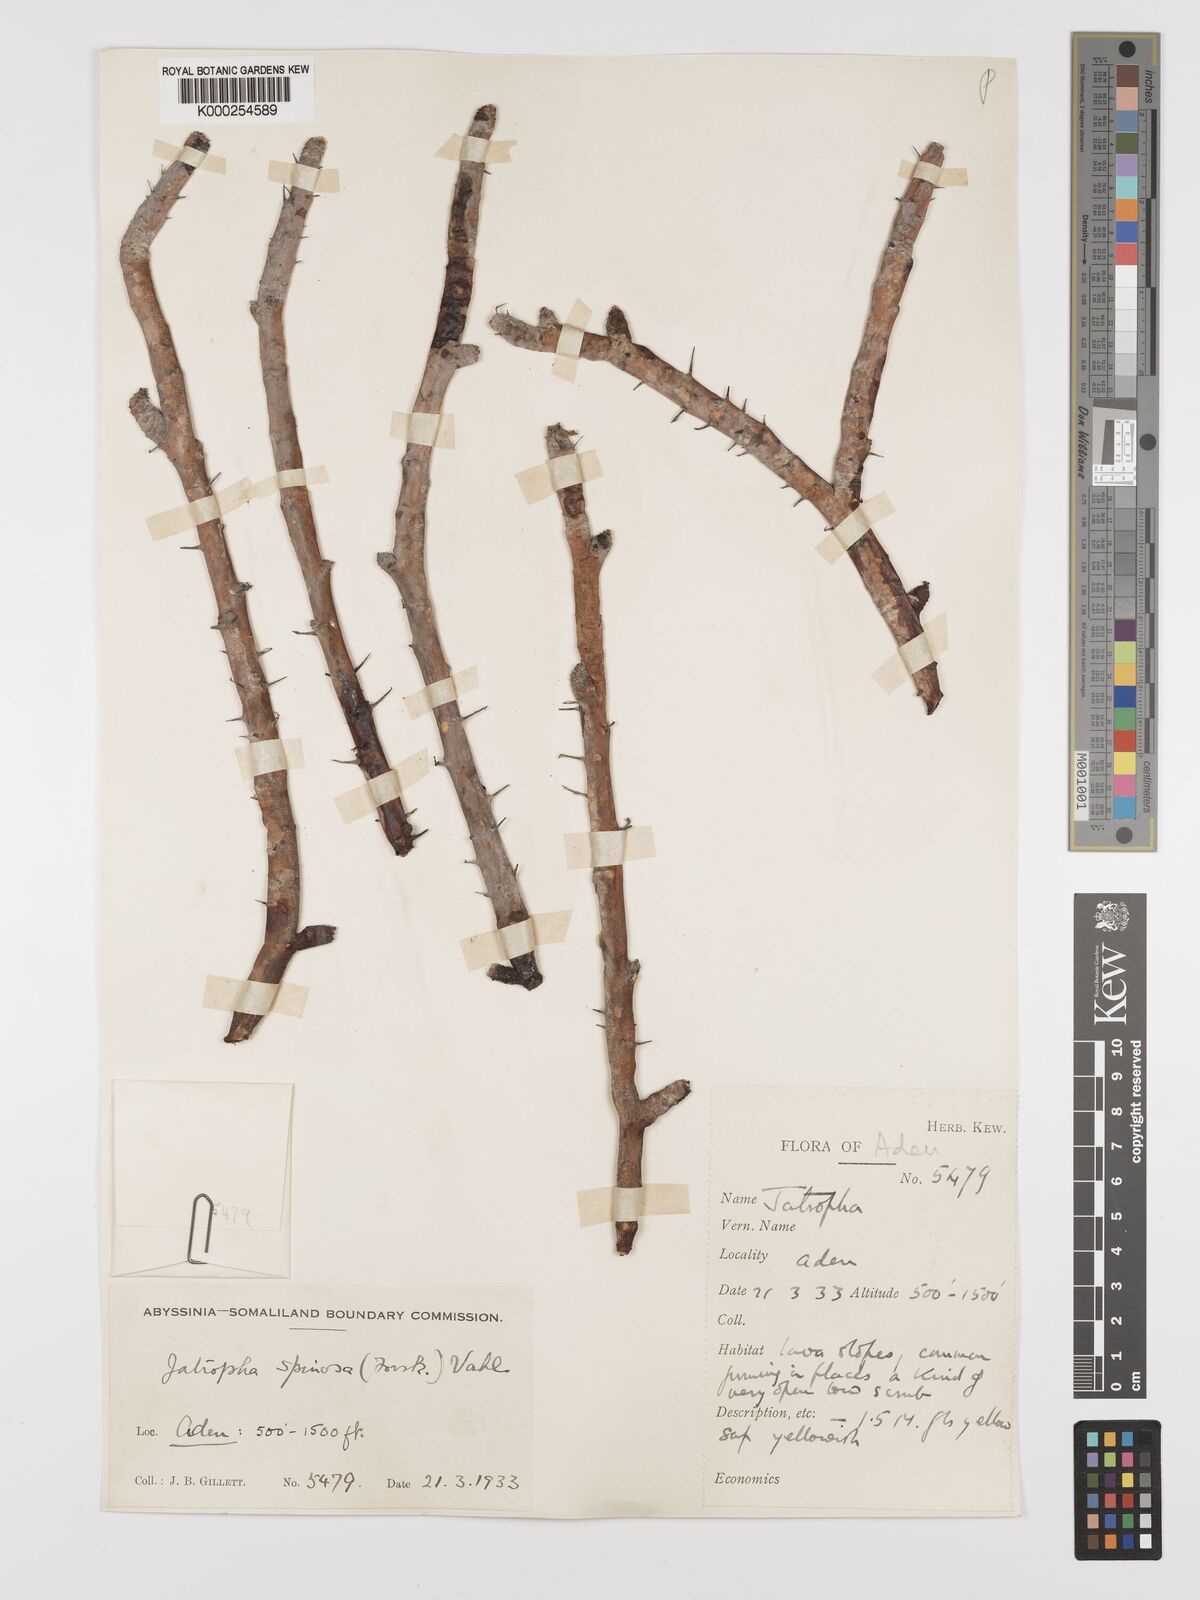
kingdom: Plantae
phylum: Tracheophyta
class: Magnoliopsida
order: Malpighiales
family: Euphorbiaceae
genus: Jatropha
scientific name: Jatropha spinosa
